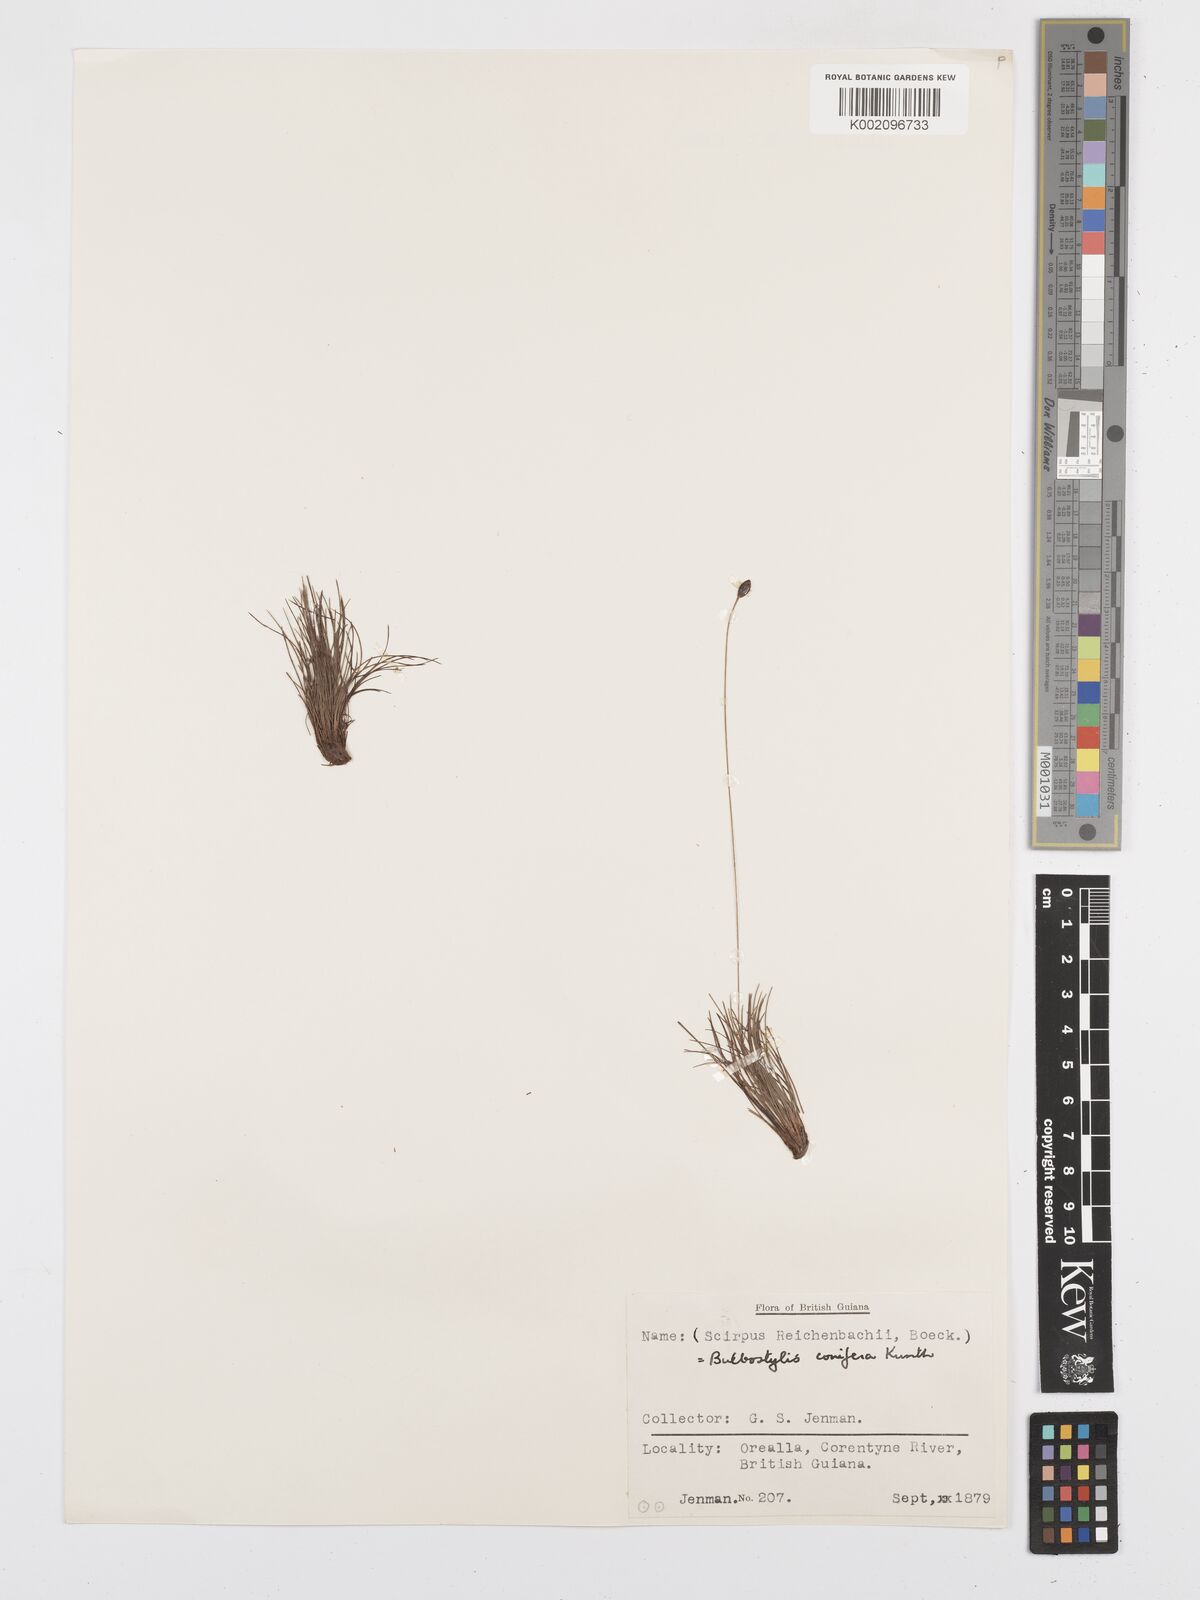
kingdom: Plantae
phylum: Tracheophyta
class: Liliopsida
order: Poales
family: Cyperaceae
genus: Bulbostylis
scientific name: Bulbostylis conifera
